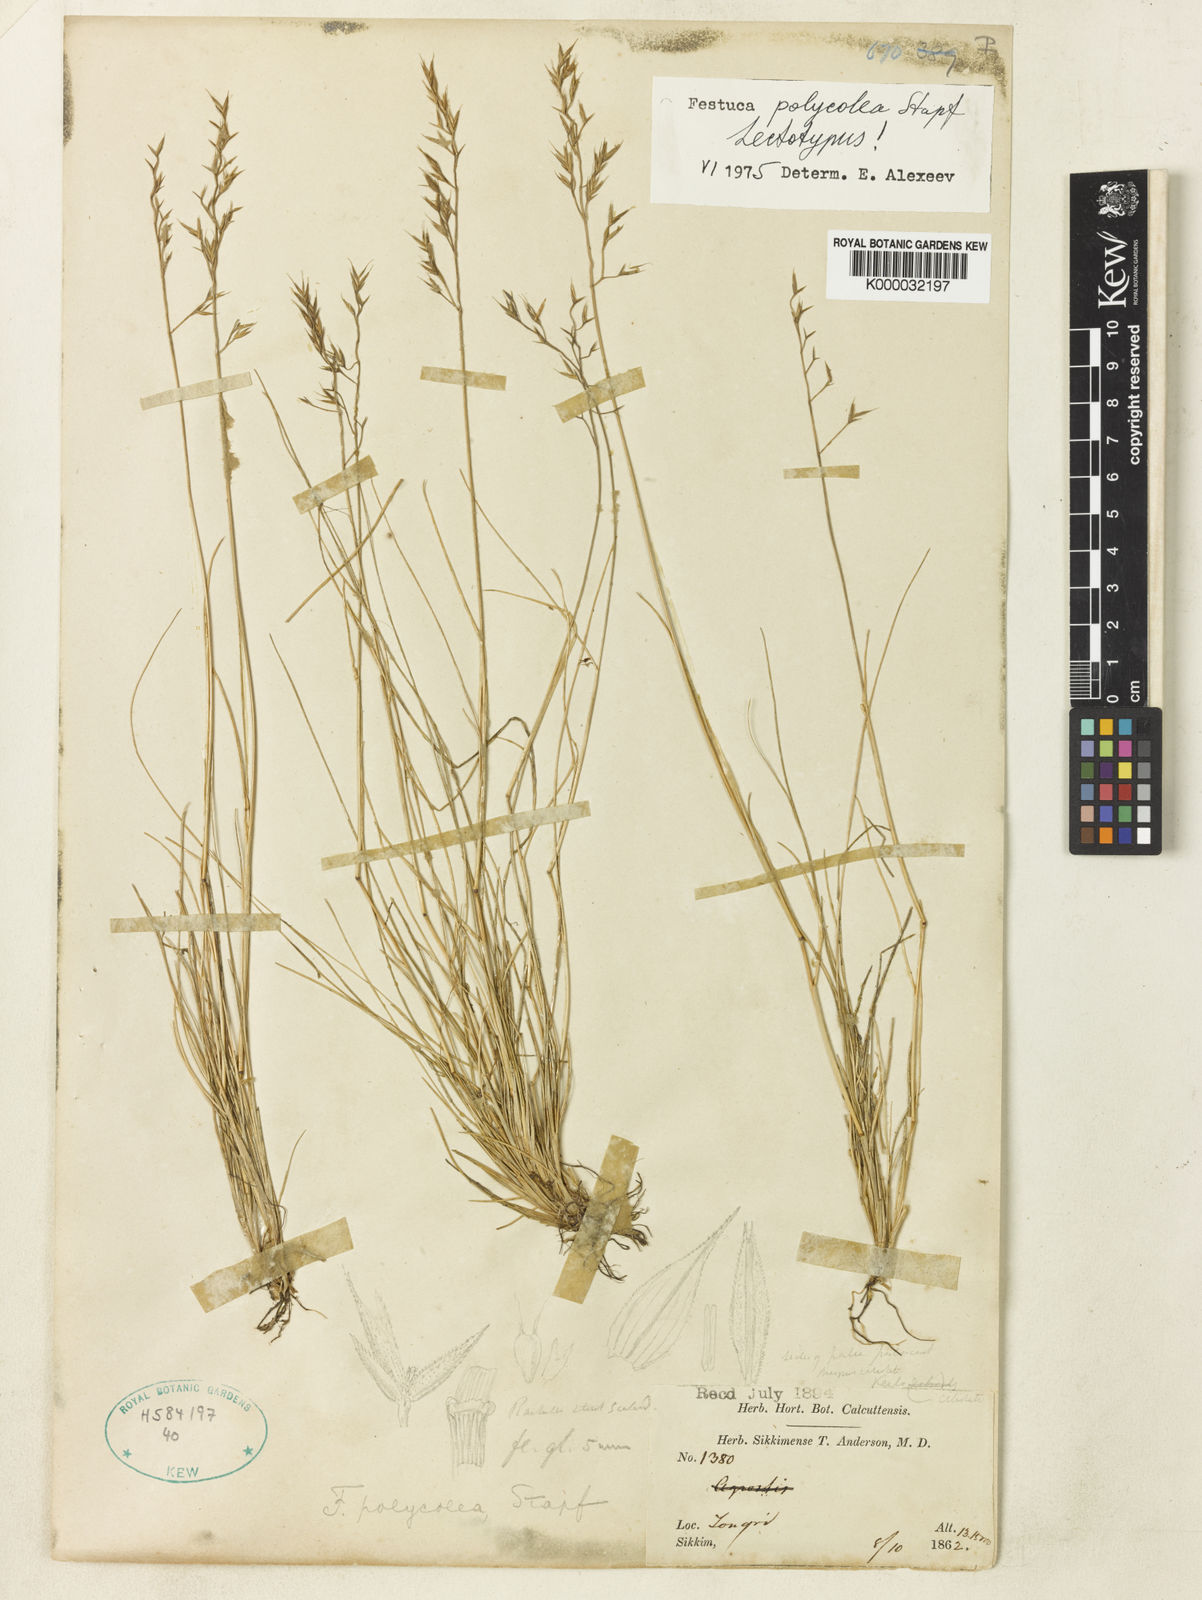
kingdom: Plantae
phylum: Tracheophyta
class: Liliopsida
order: Poales
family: Poaceae
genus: Festuca
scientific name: Festuca polycolea
